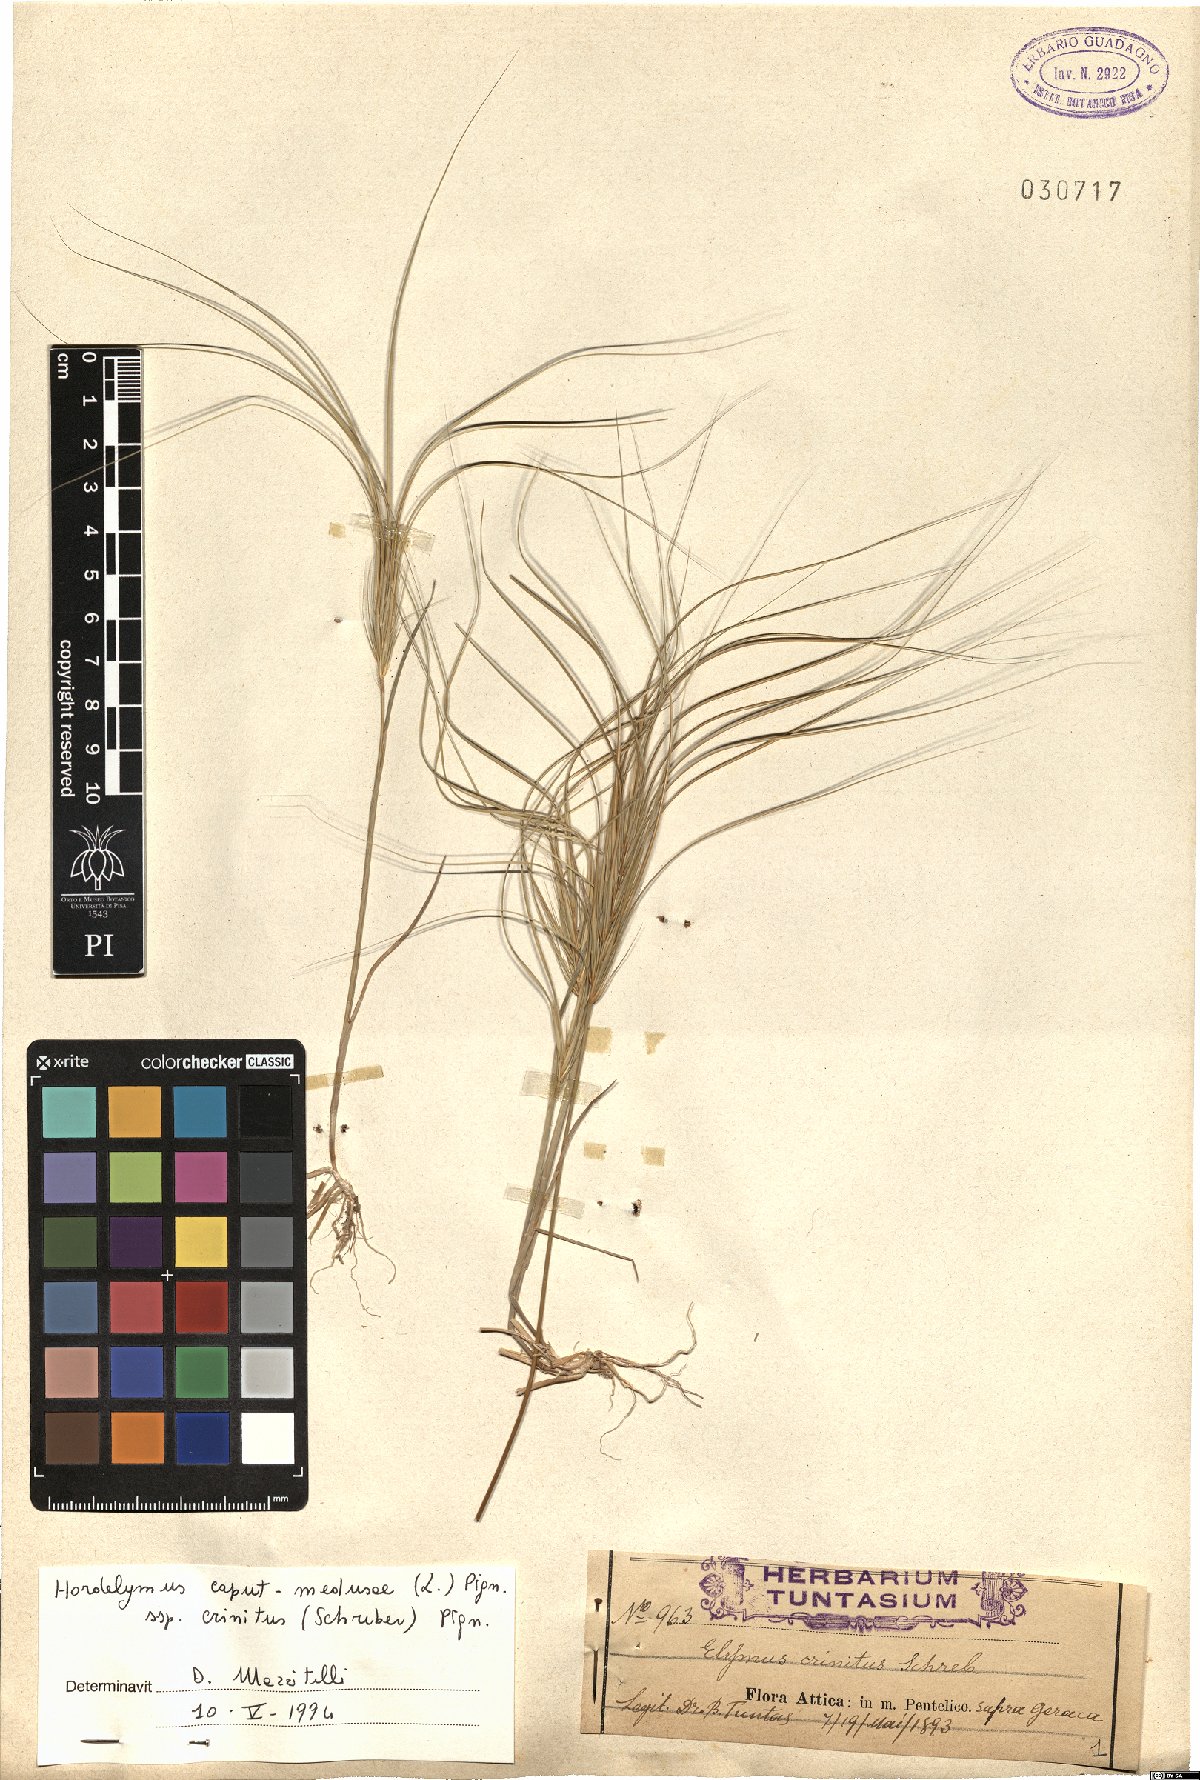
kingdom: Plantae
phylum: Tracheophyta
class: Liliopsida
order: Poales
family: Poaceae
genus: Taeniatherum
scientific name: Taeniatherum caput-medusae
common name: Medusahead
